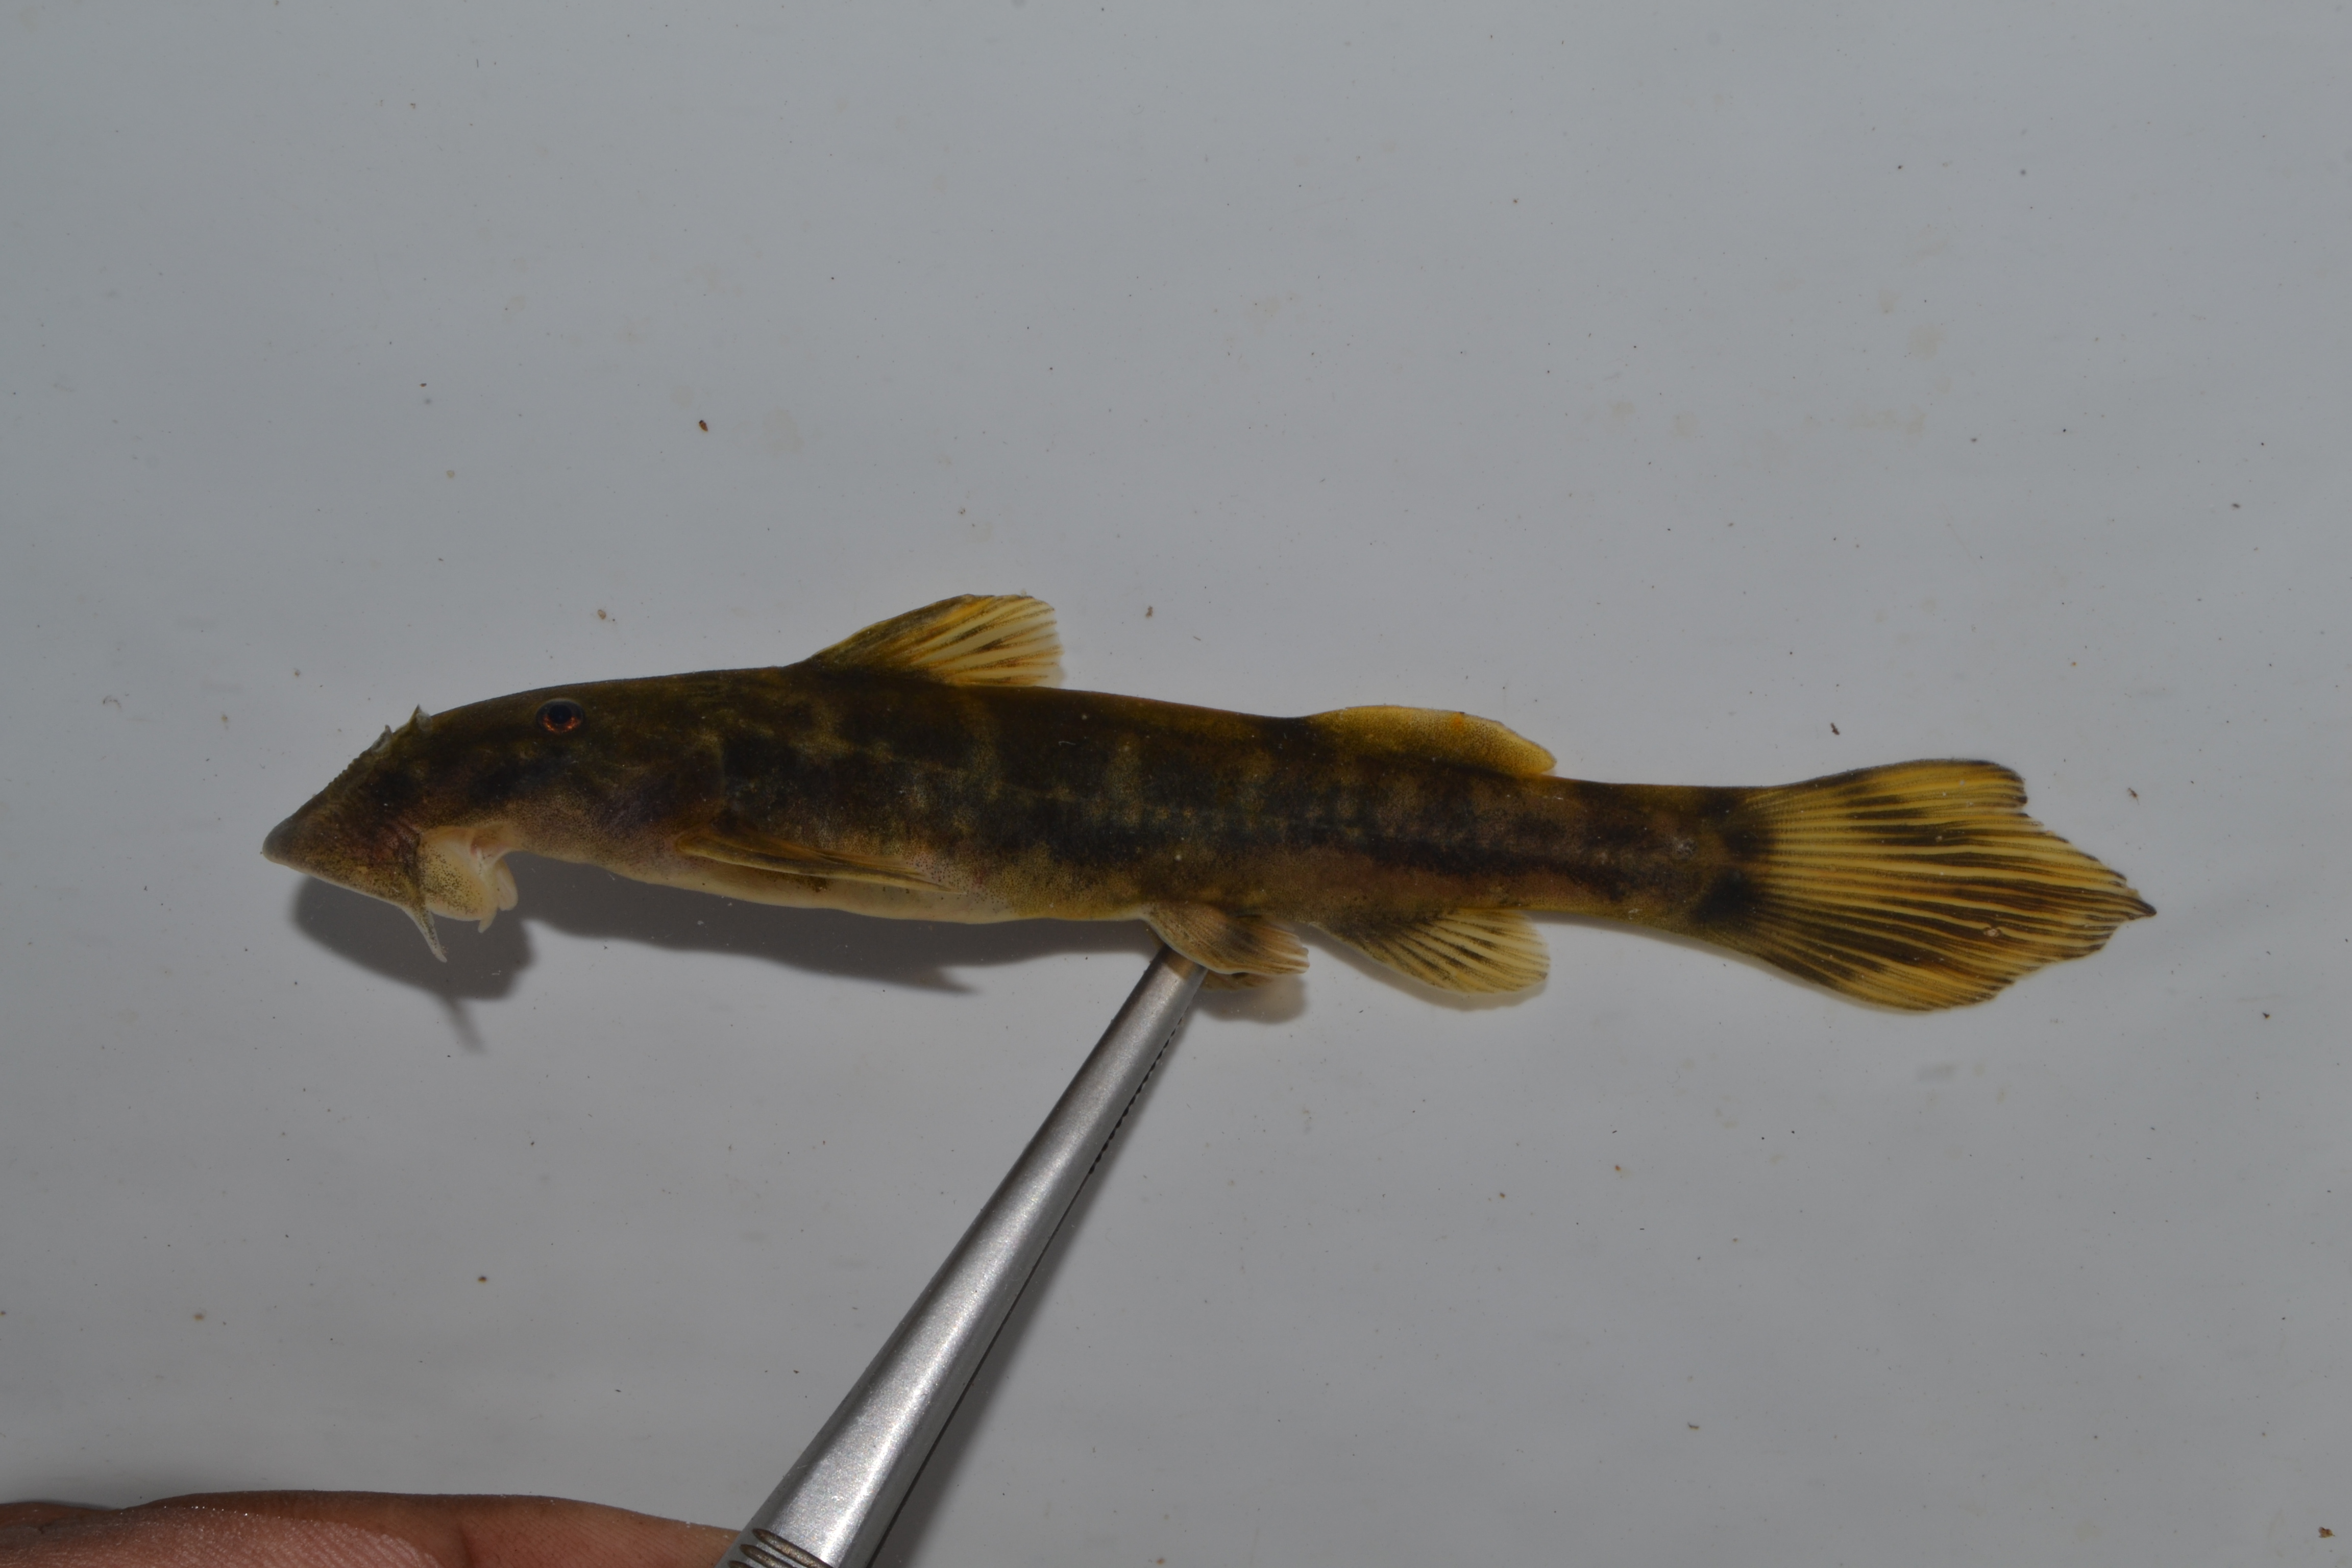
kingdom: Animalia
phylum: Chordata
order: Siluriformes
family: Mochokidae
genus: Chiloglanis
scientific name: Chiloglanis anoterus
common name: Pennant-tailed catlet
